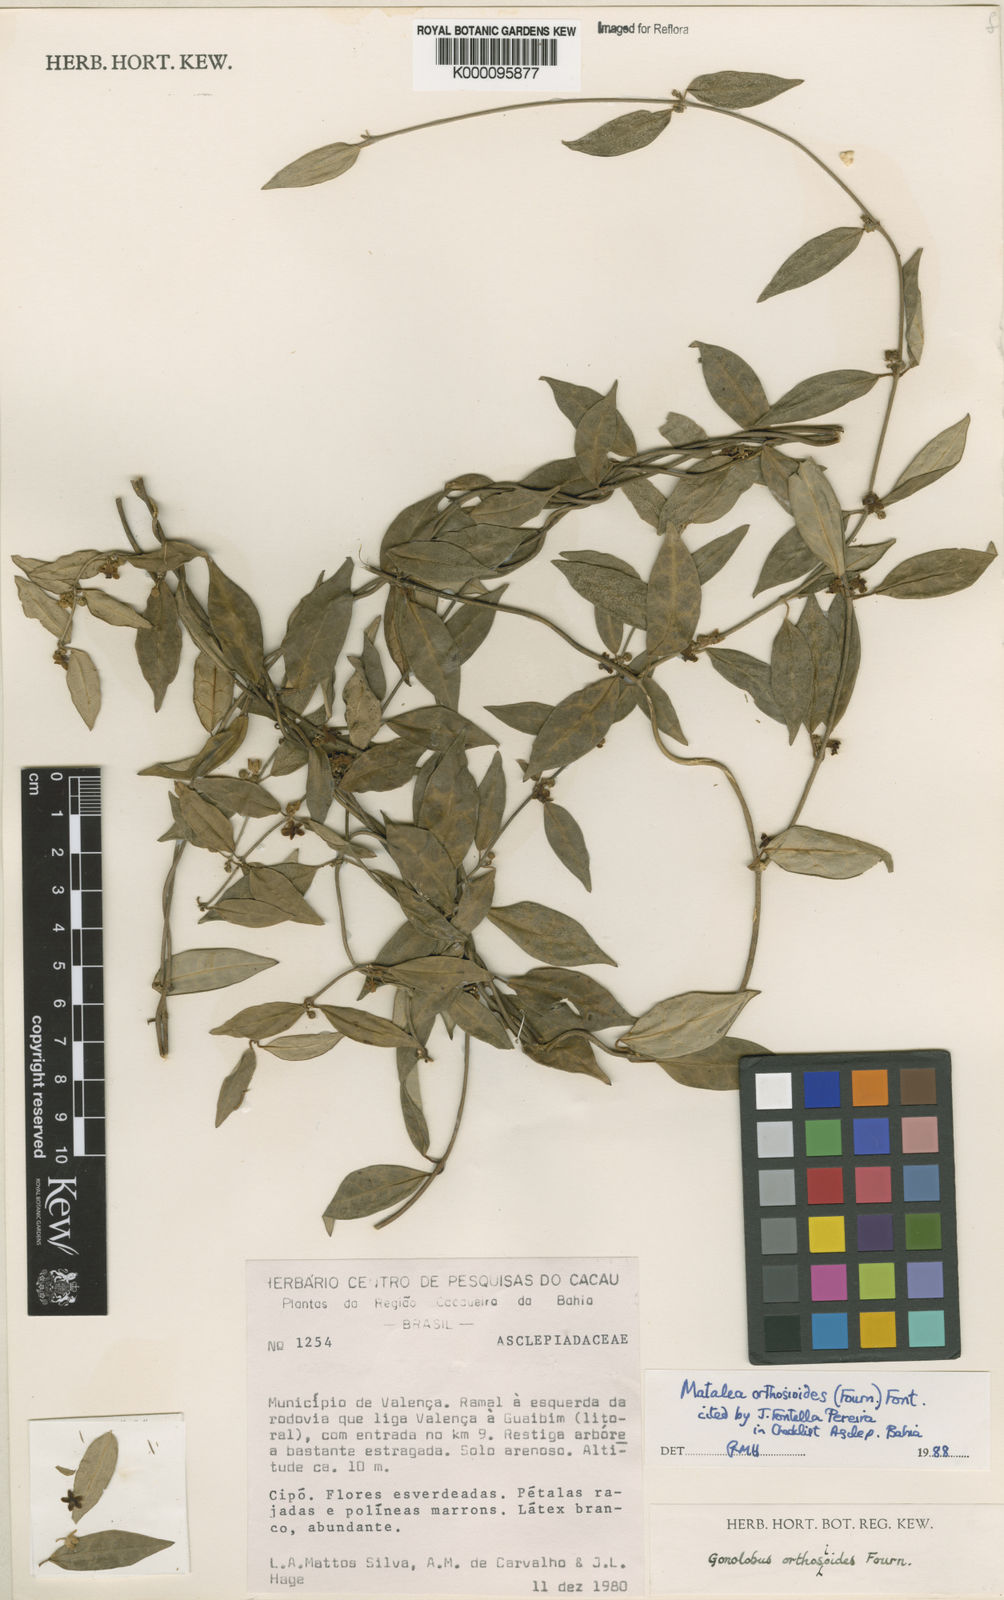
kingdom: Plantae
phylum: Tracheophyta
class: Magnoliopsida
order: Gentianales
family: Apocynaceae
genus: Matelea
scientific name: Matelea orthosioides
